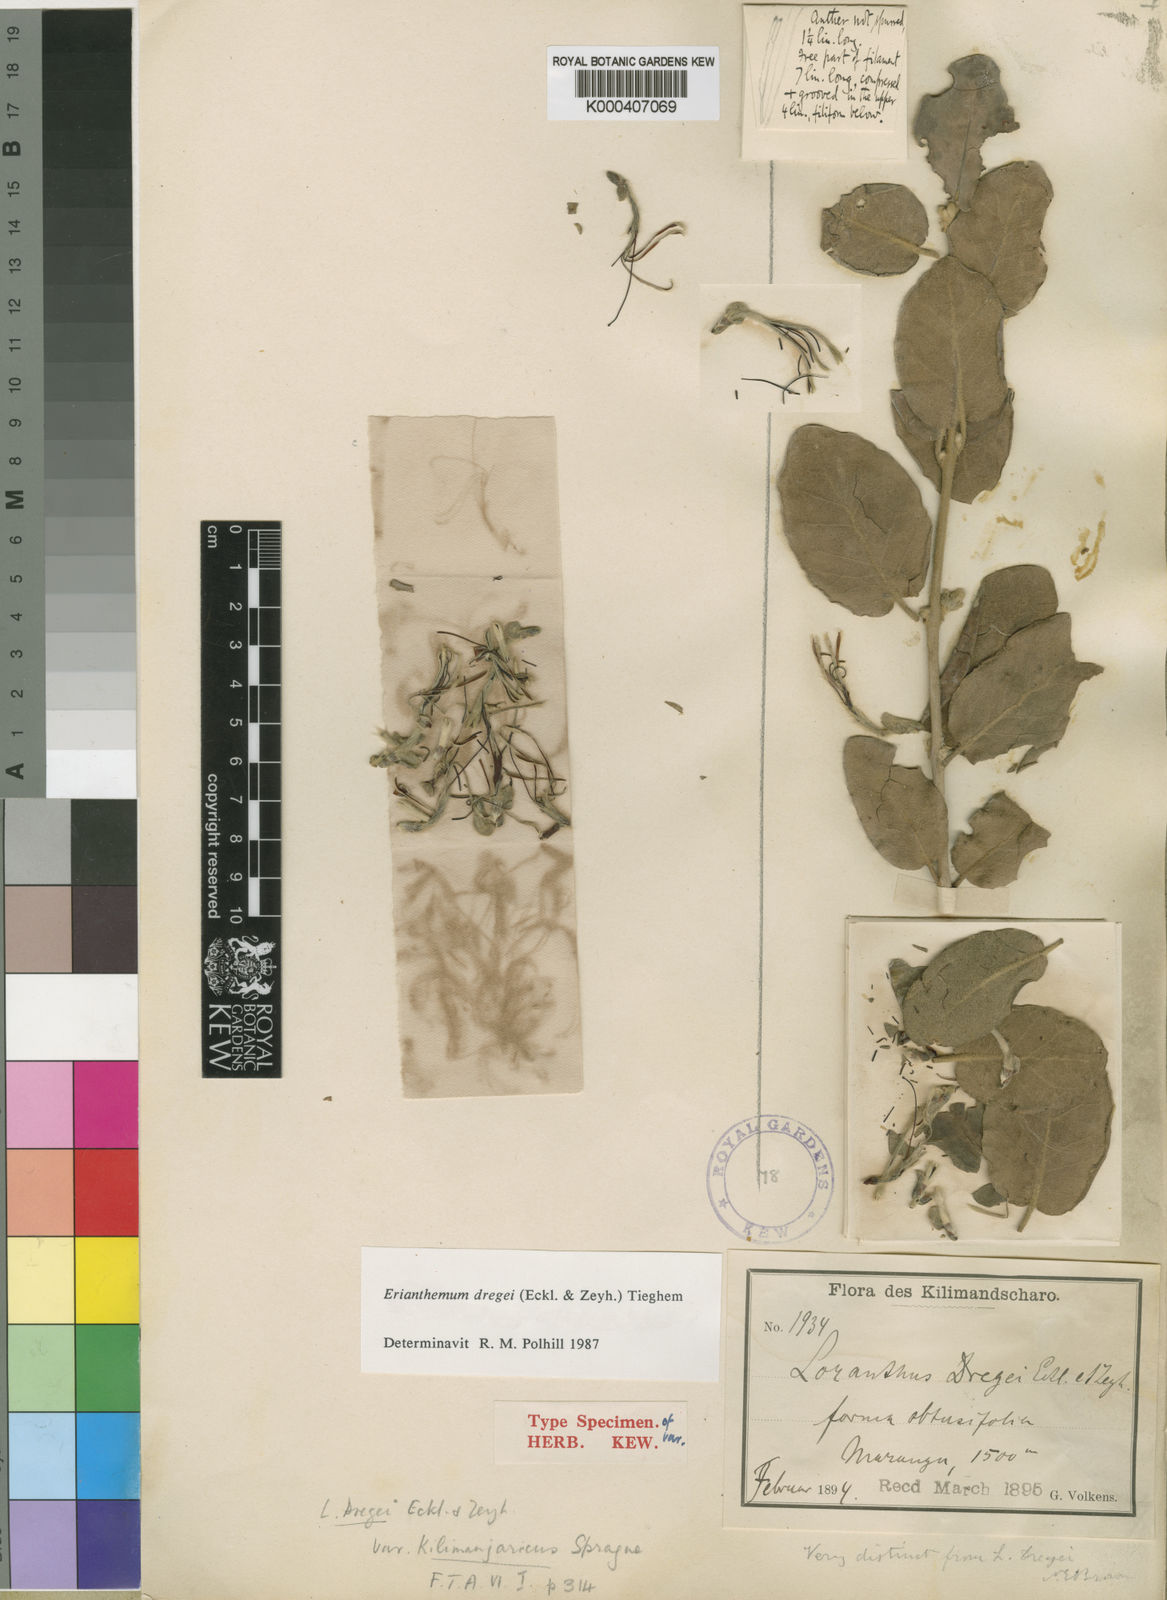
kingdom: Plantae
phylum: Tracheophyta
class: Magnoliopsida
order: Santalales
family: Loranthaceae
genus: Erianthemum
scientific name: Erianthemum dregei
